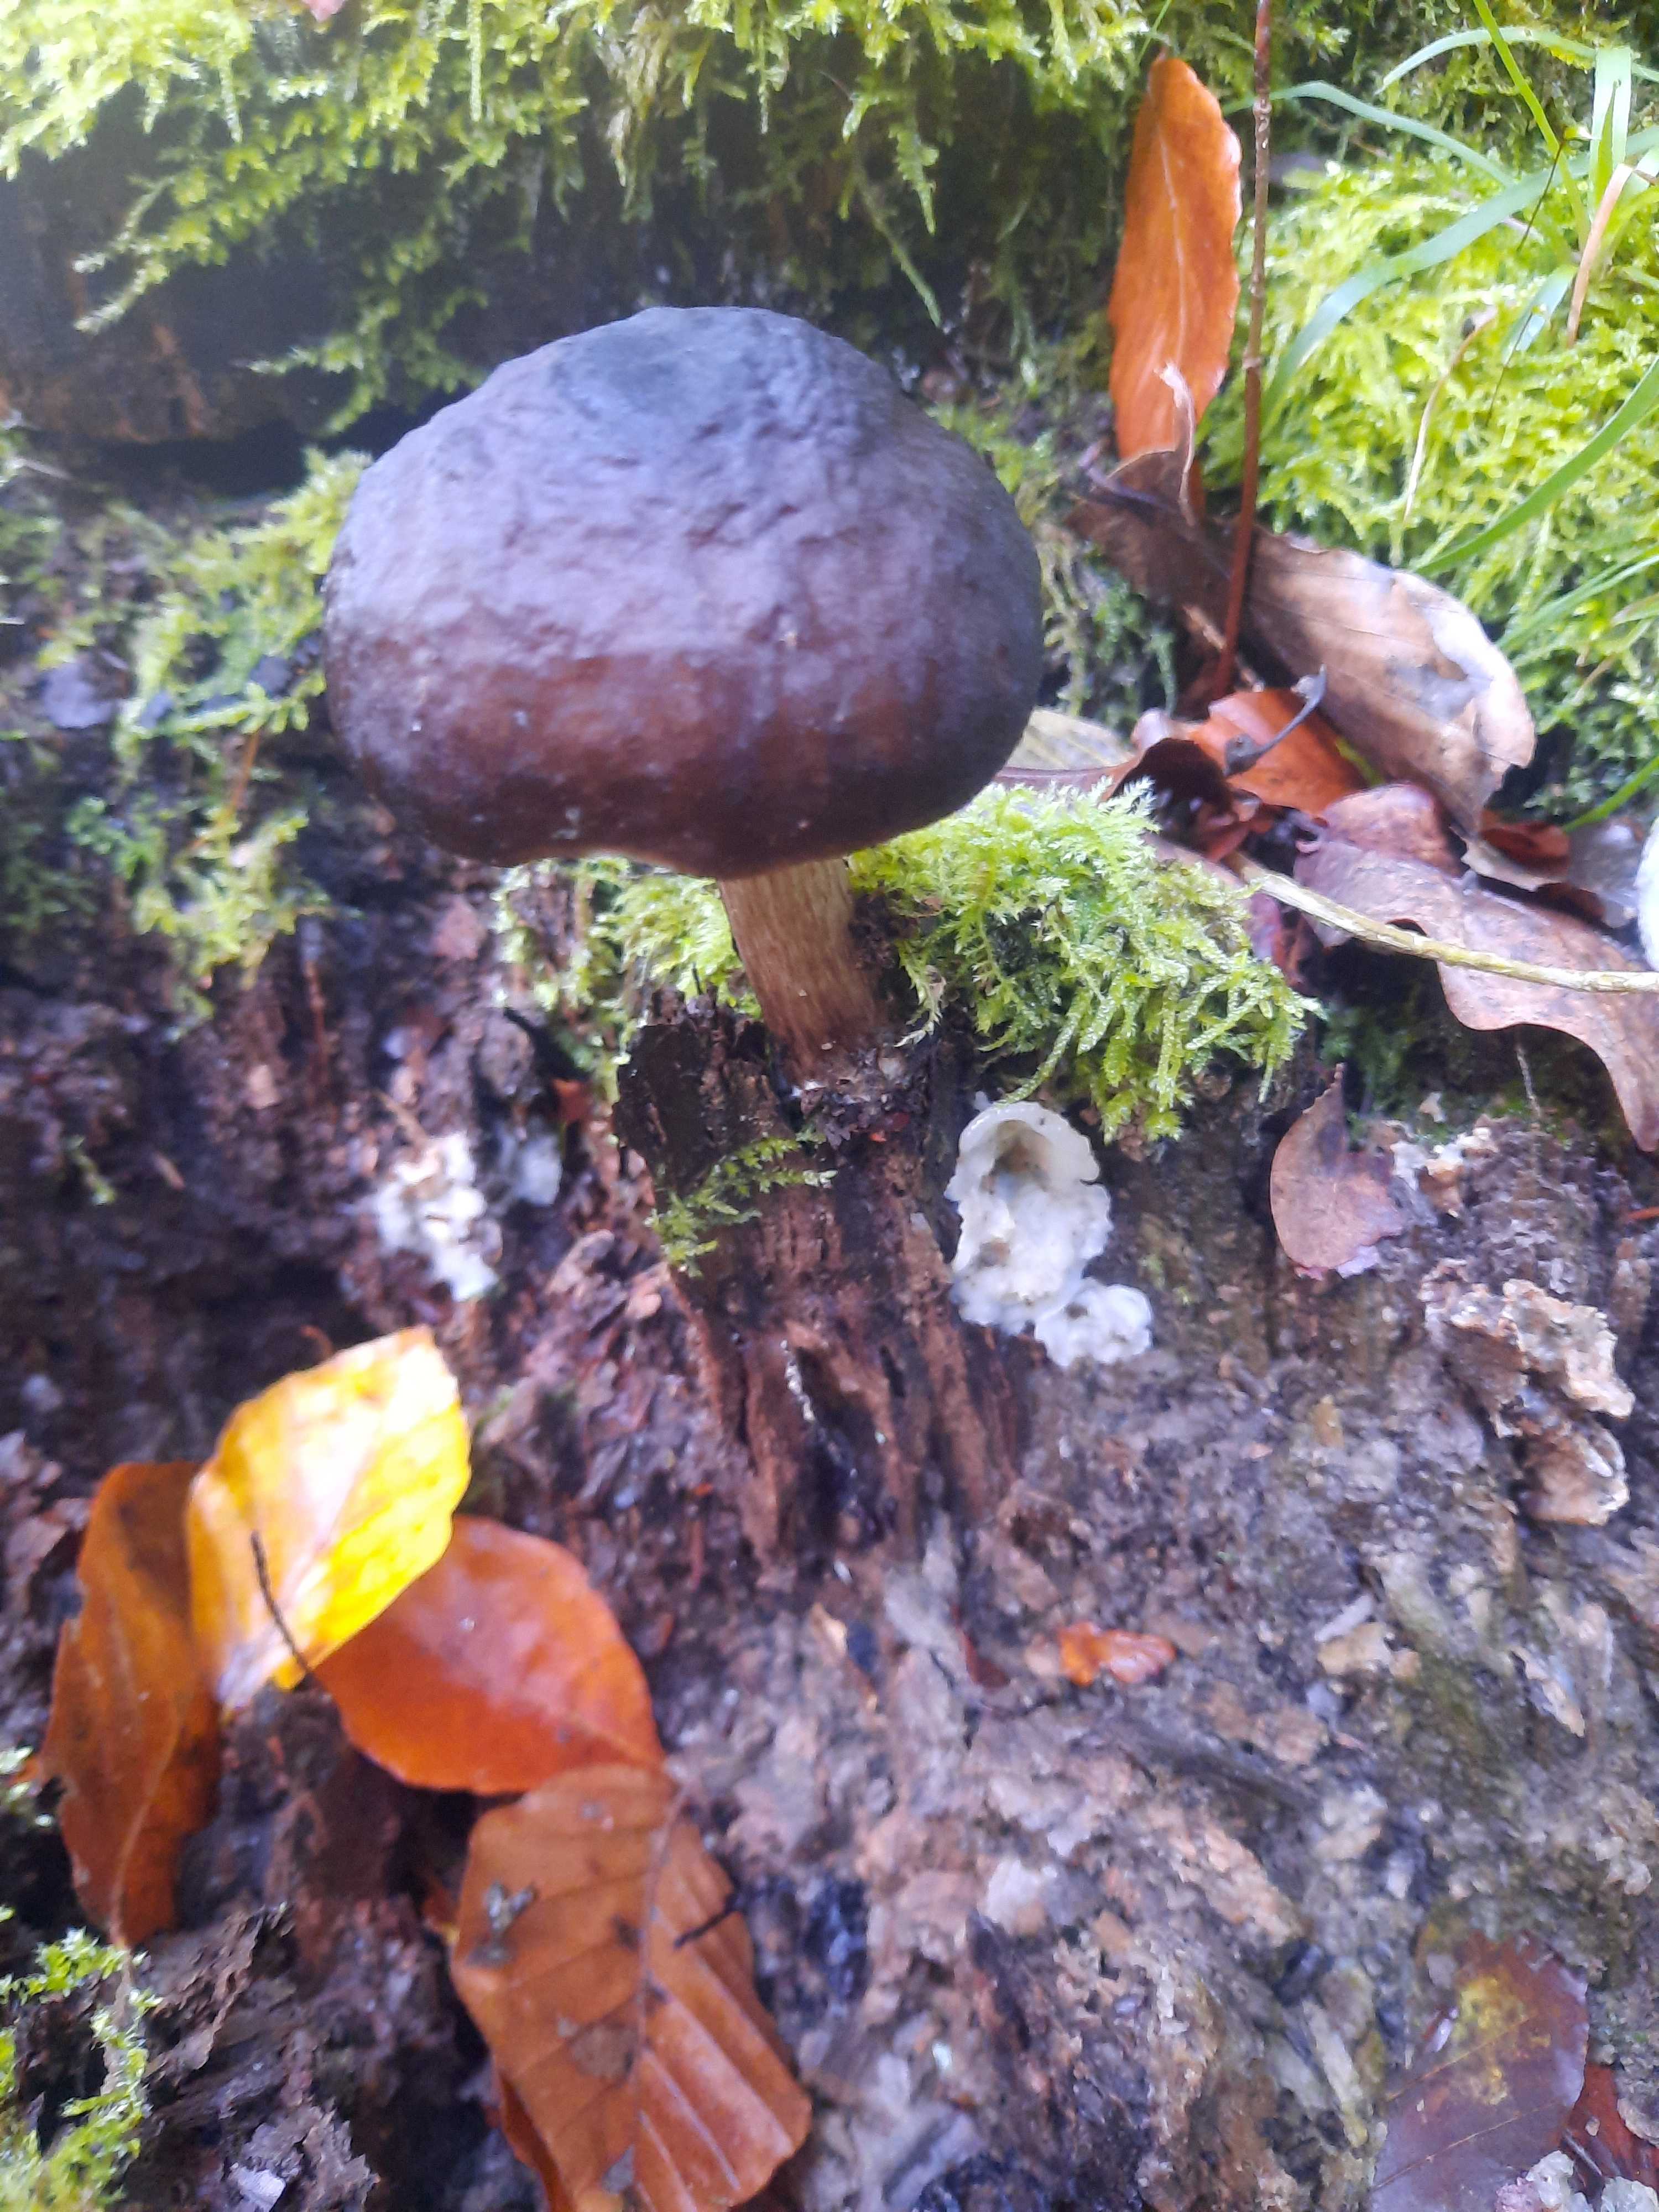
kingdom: Fungi
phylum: Basidiomycota
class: Agaricomycetes
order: Agaricales
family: Pluteaceae
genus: Pluteus
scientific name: Pluteus cervinus
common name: sodfarvet skærmhat
